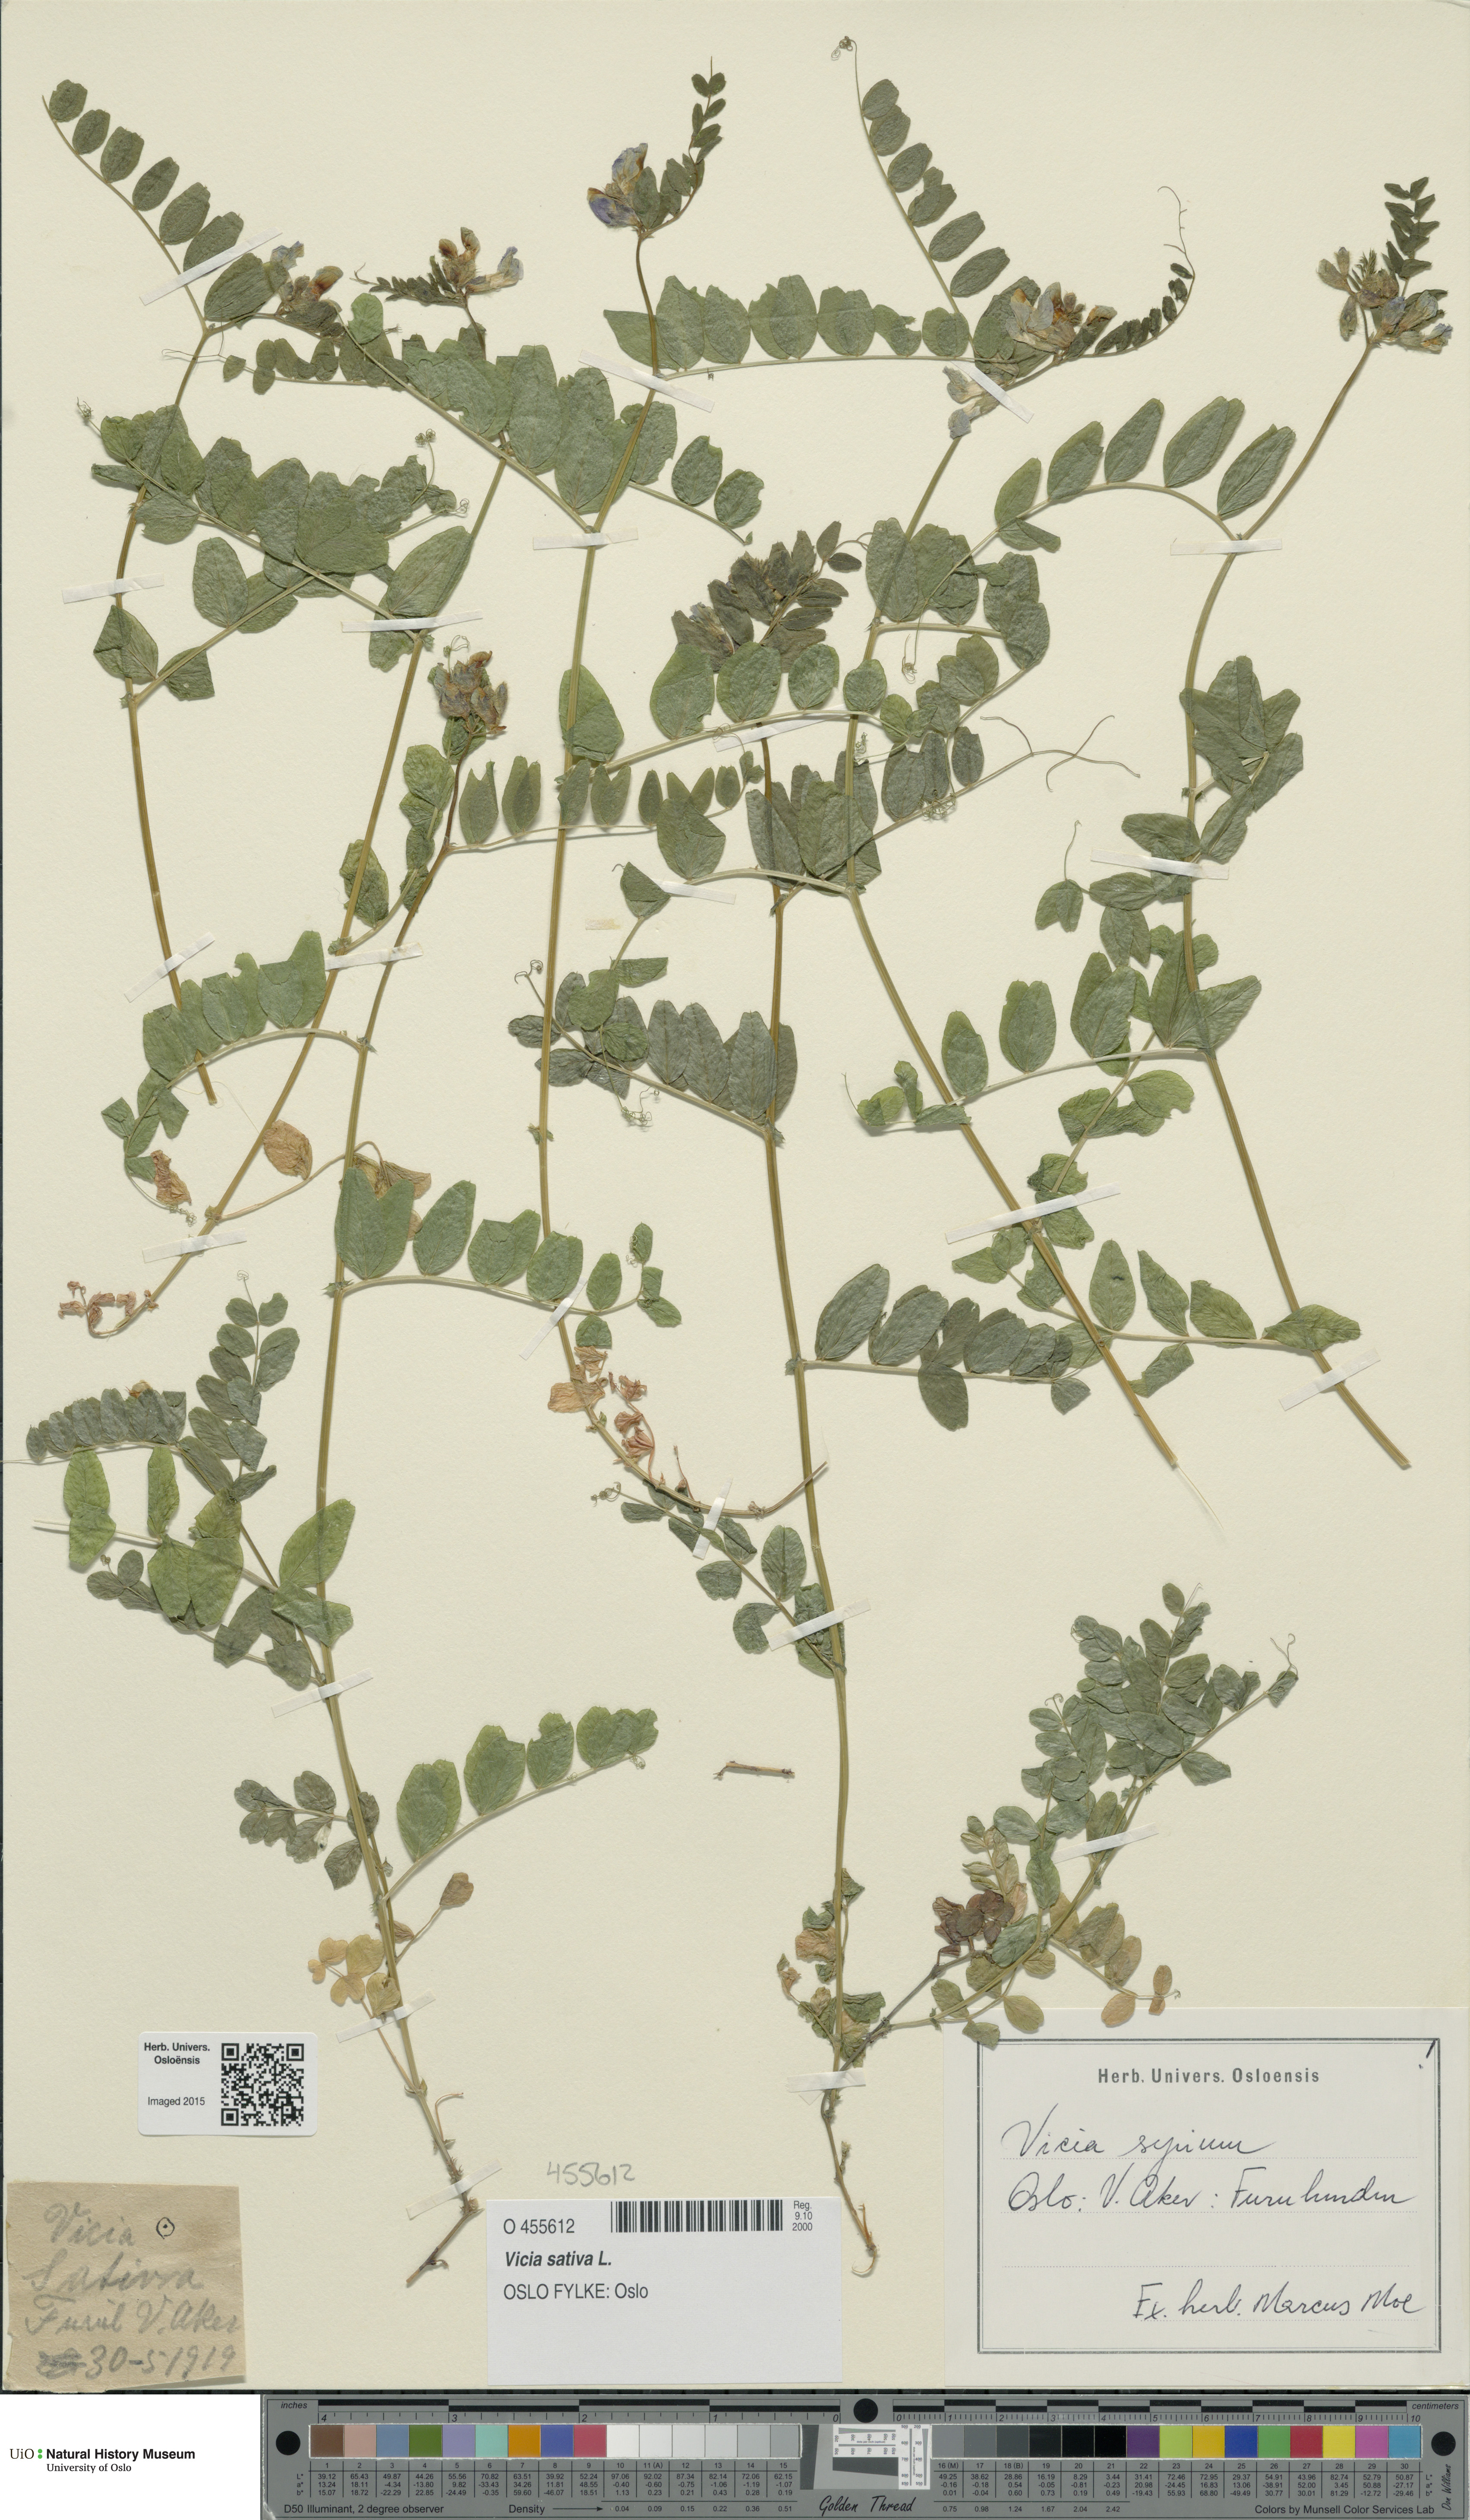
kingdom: Plantae
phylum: Tracheophyta
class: Magnoliopsida
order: Fabales
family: Fabaceae
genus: Vicia
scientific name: Vicia sativa
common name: Garden vetch
